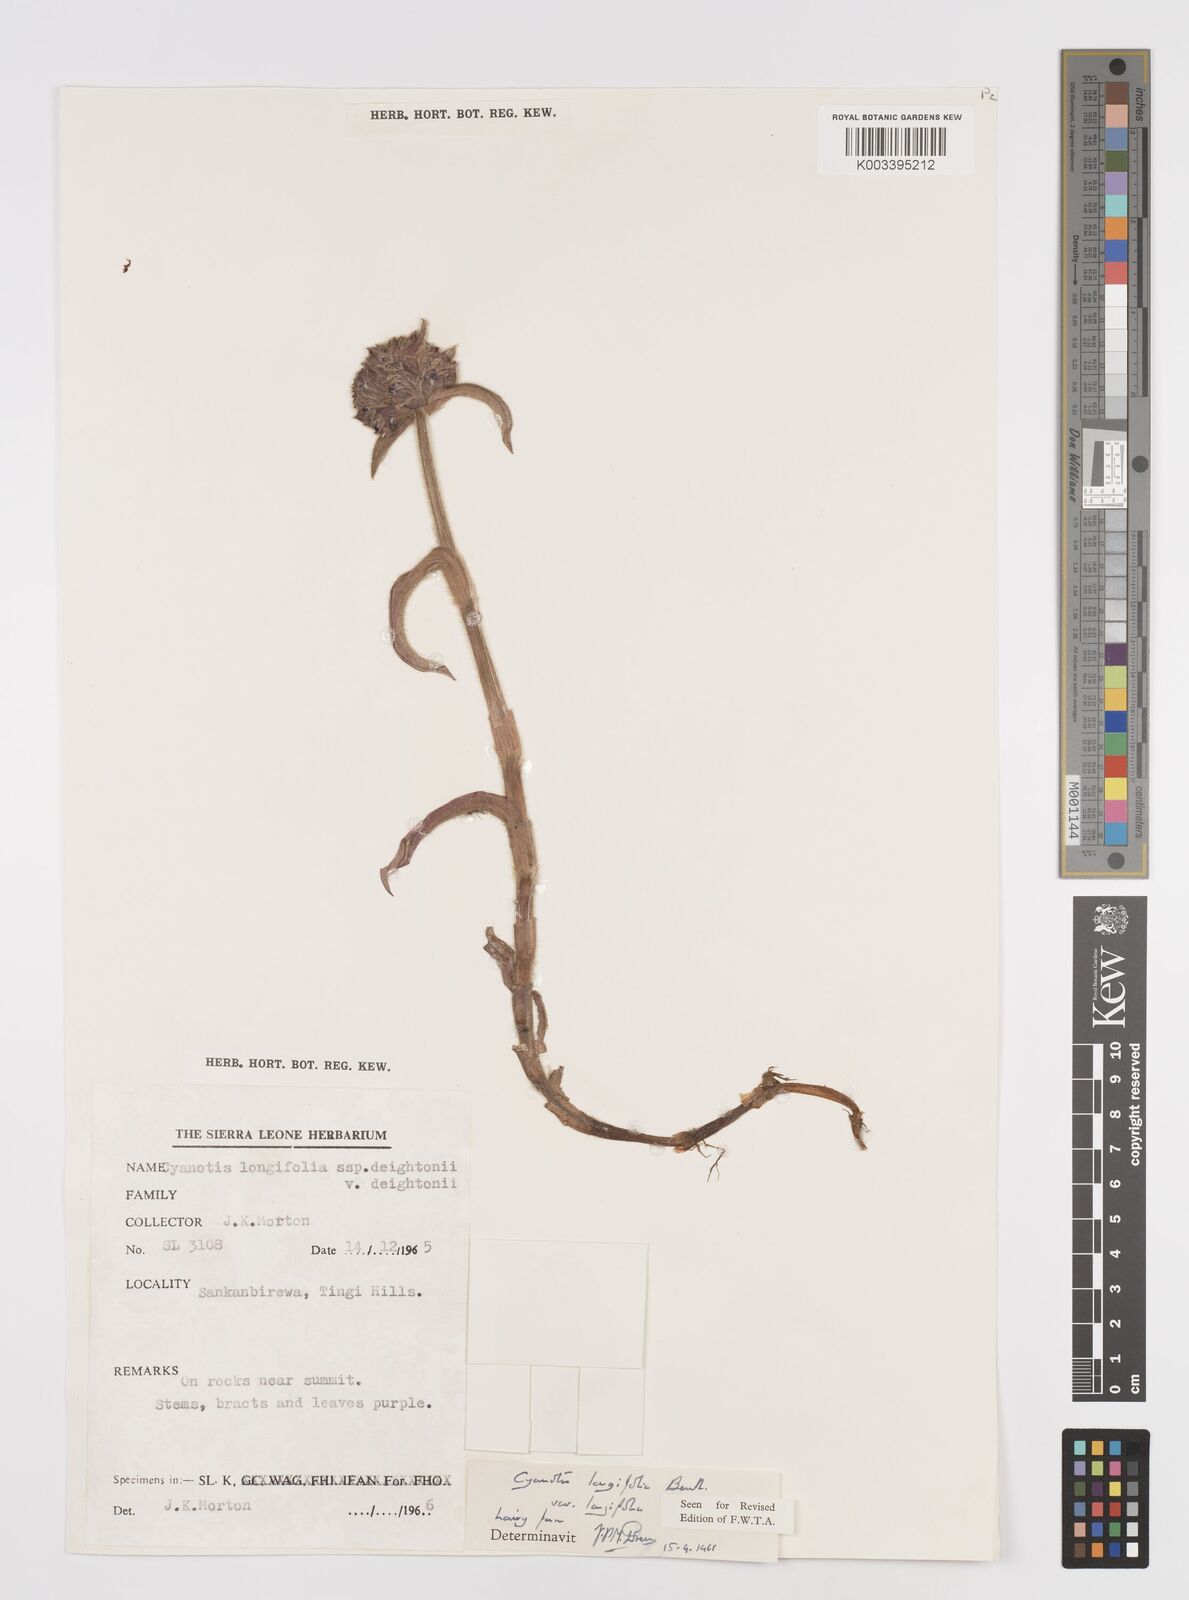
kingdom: Plantae
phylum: Tracheophyta
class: Liliopsida
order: Commelinales
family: Commelinaceae
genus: Cyanotis
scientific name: Cyanotis
